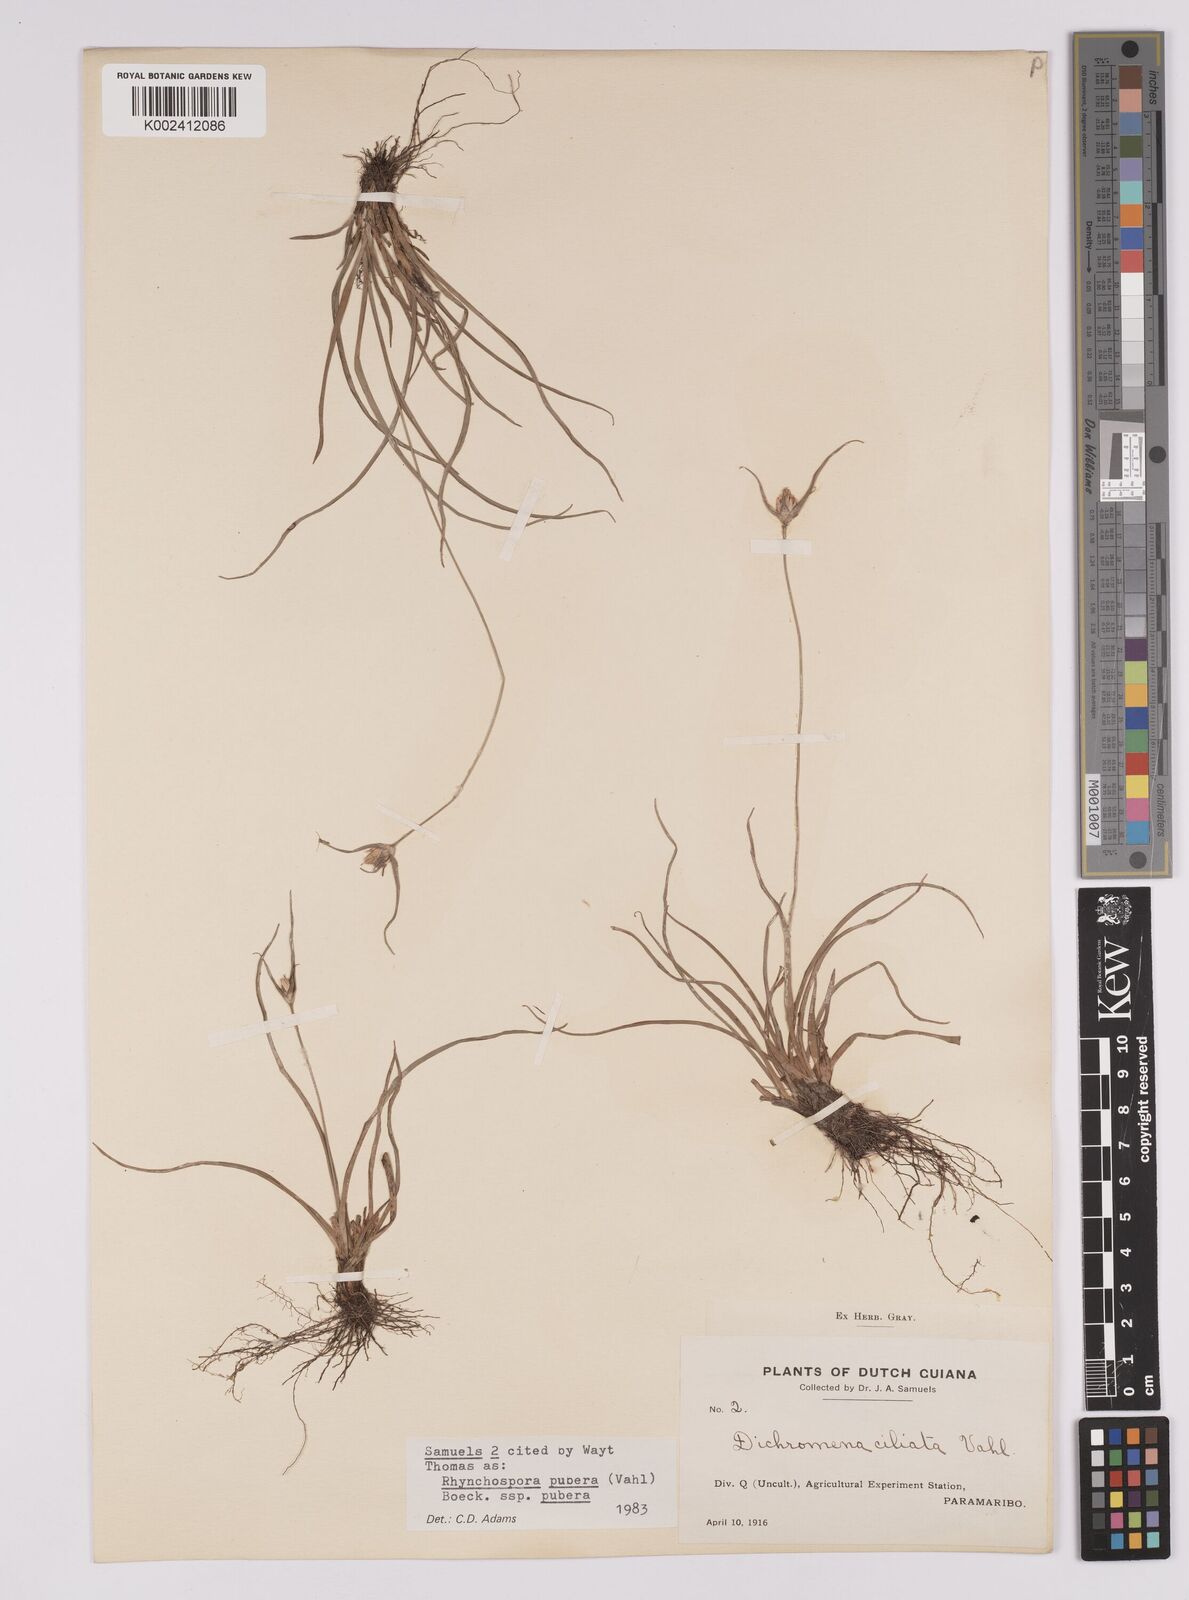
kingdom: Plantae
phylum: Tracheophyta
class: Liliopsida
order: Poales
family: Cyperaceae
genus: Rhynchospora
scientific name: Rhynchospora pubera
